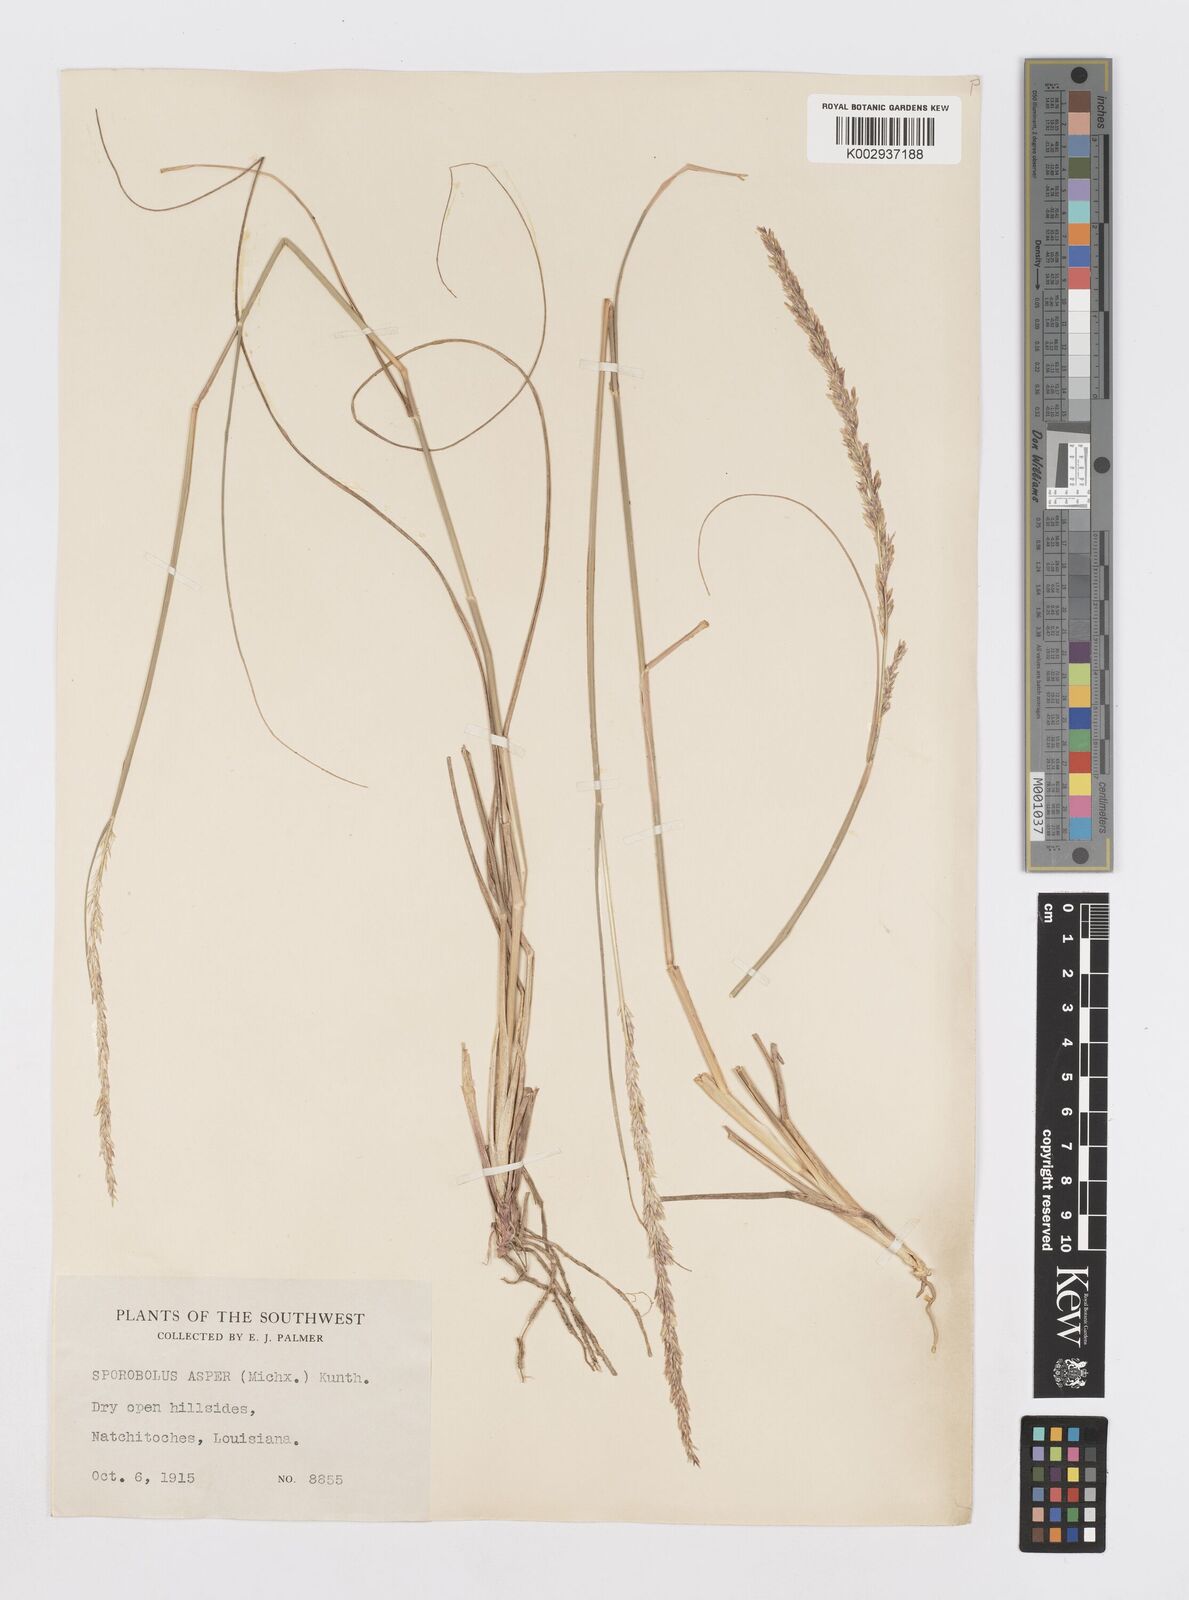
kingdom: Plantae
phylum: Tracheophyta
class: Liliopsida
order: Poales
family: Poaceae
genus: Sporobolus
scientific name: Sporobolus compositus
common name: Rough dropseed
